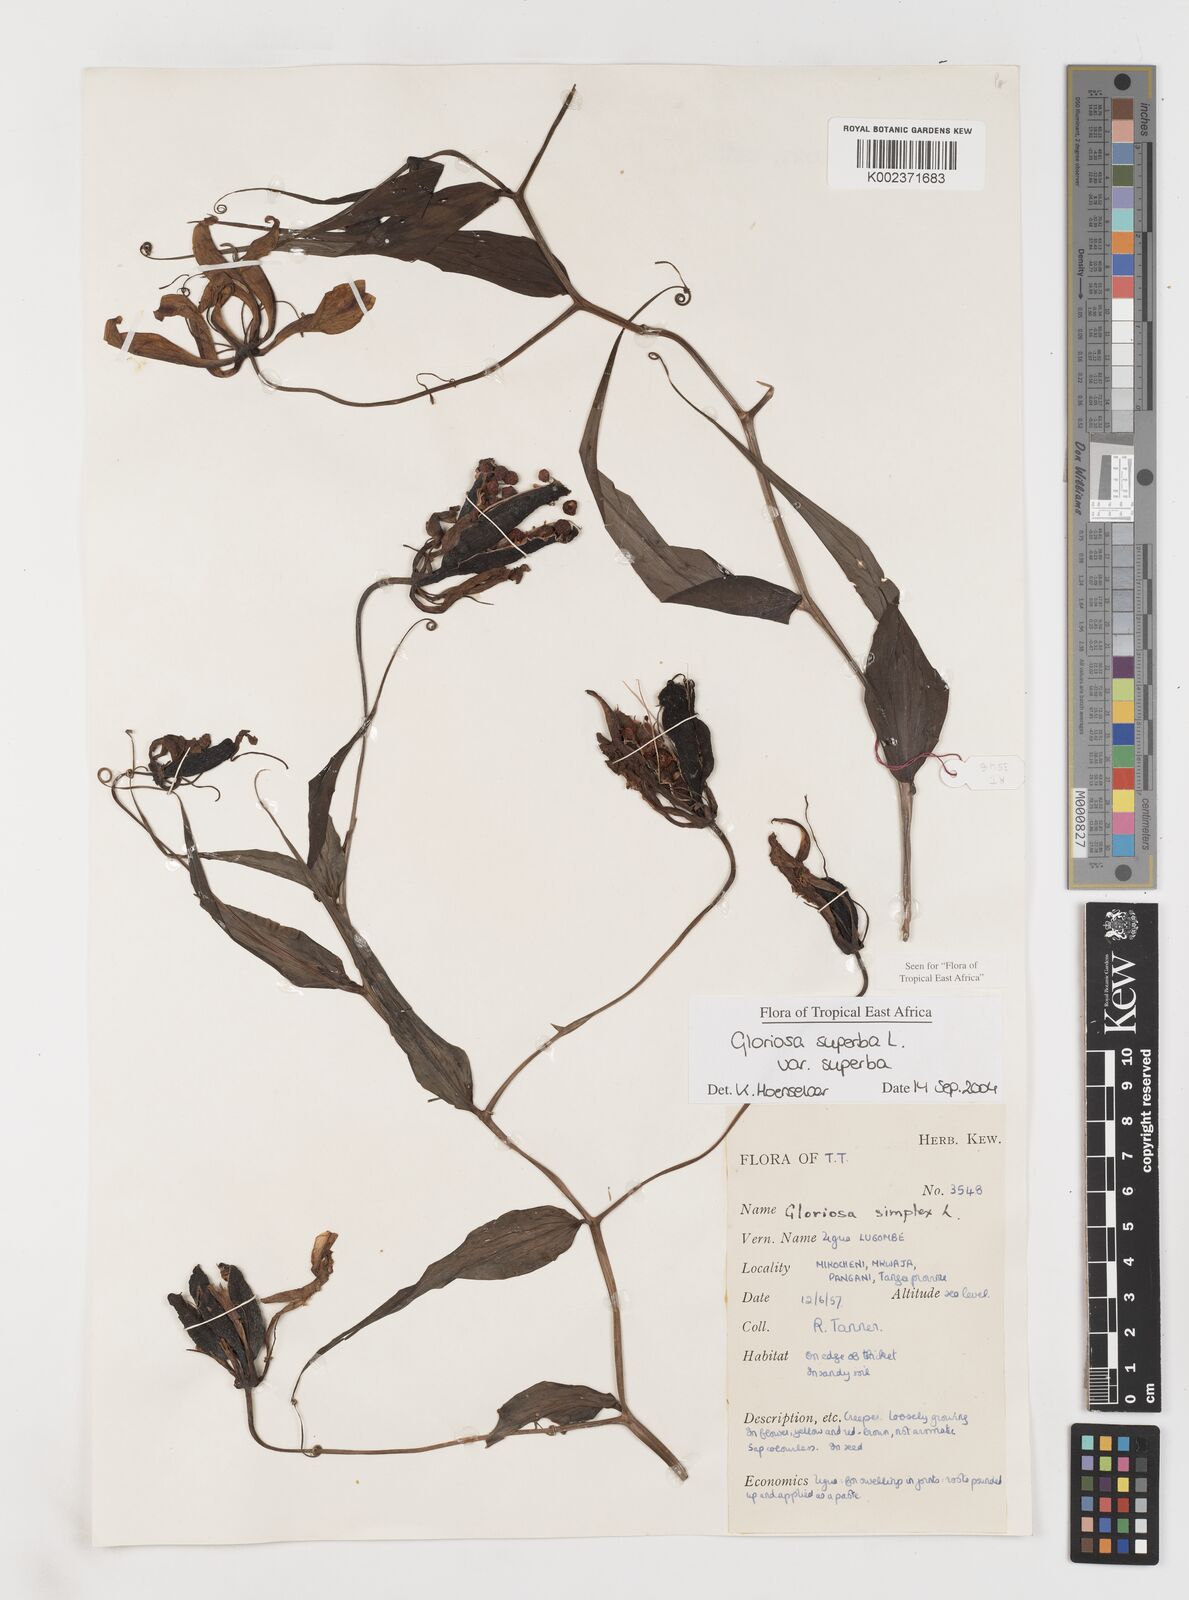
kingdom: Plantae
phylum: Tracheophyta
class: Liliopsida
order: Liliales
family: Colchicaceae
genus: Gloriosa
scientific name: Gloriosa simplex
